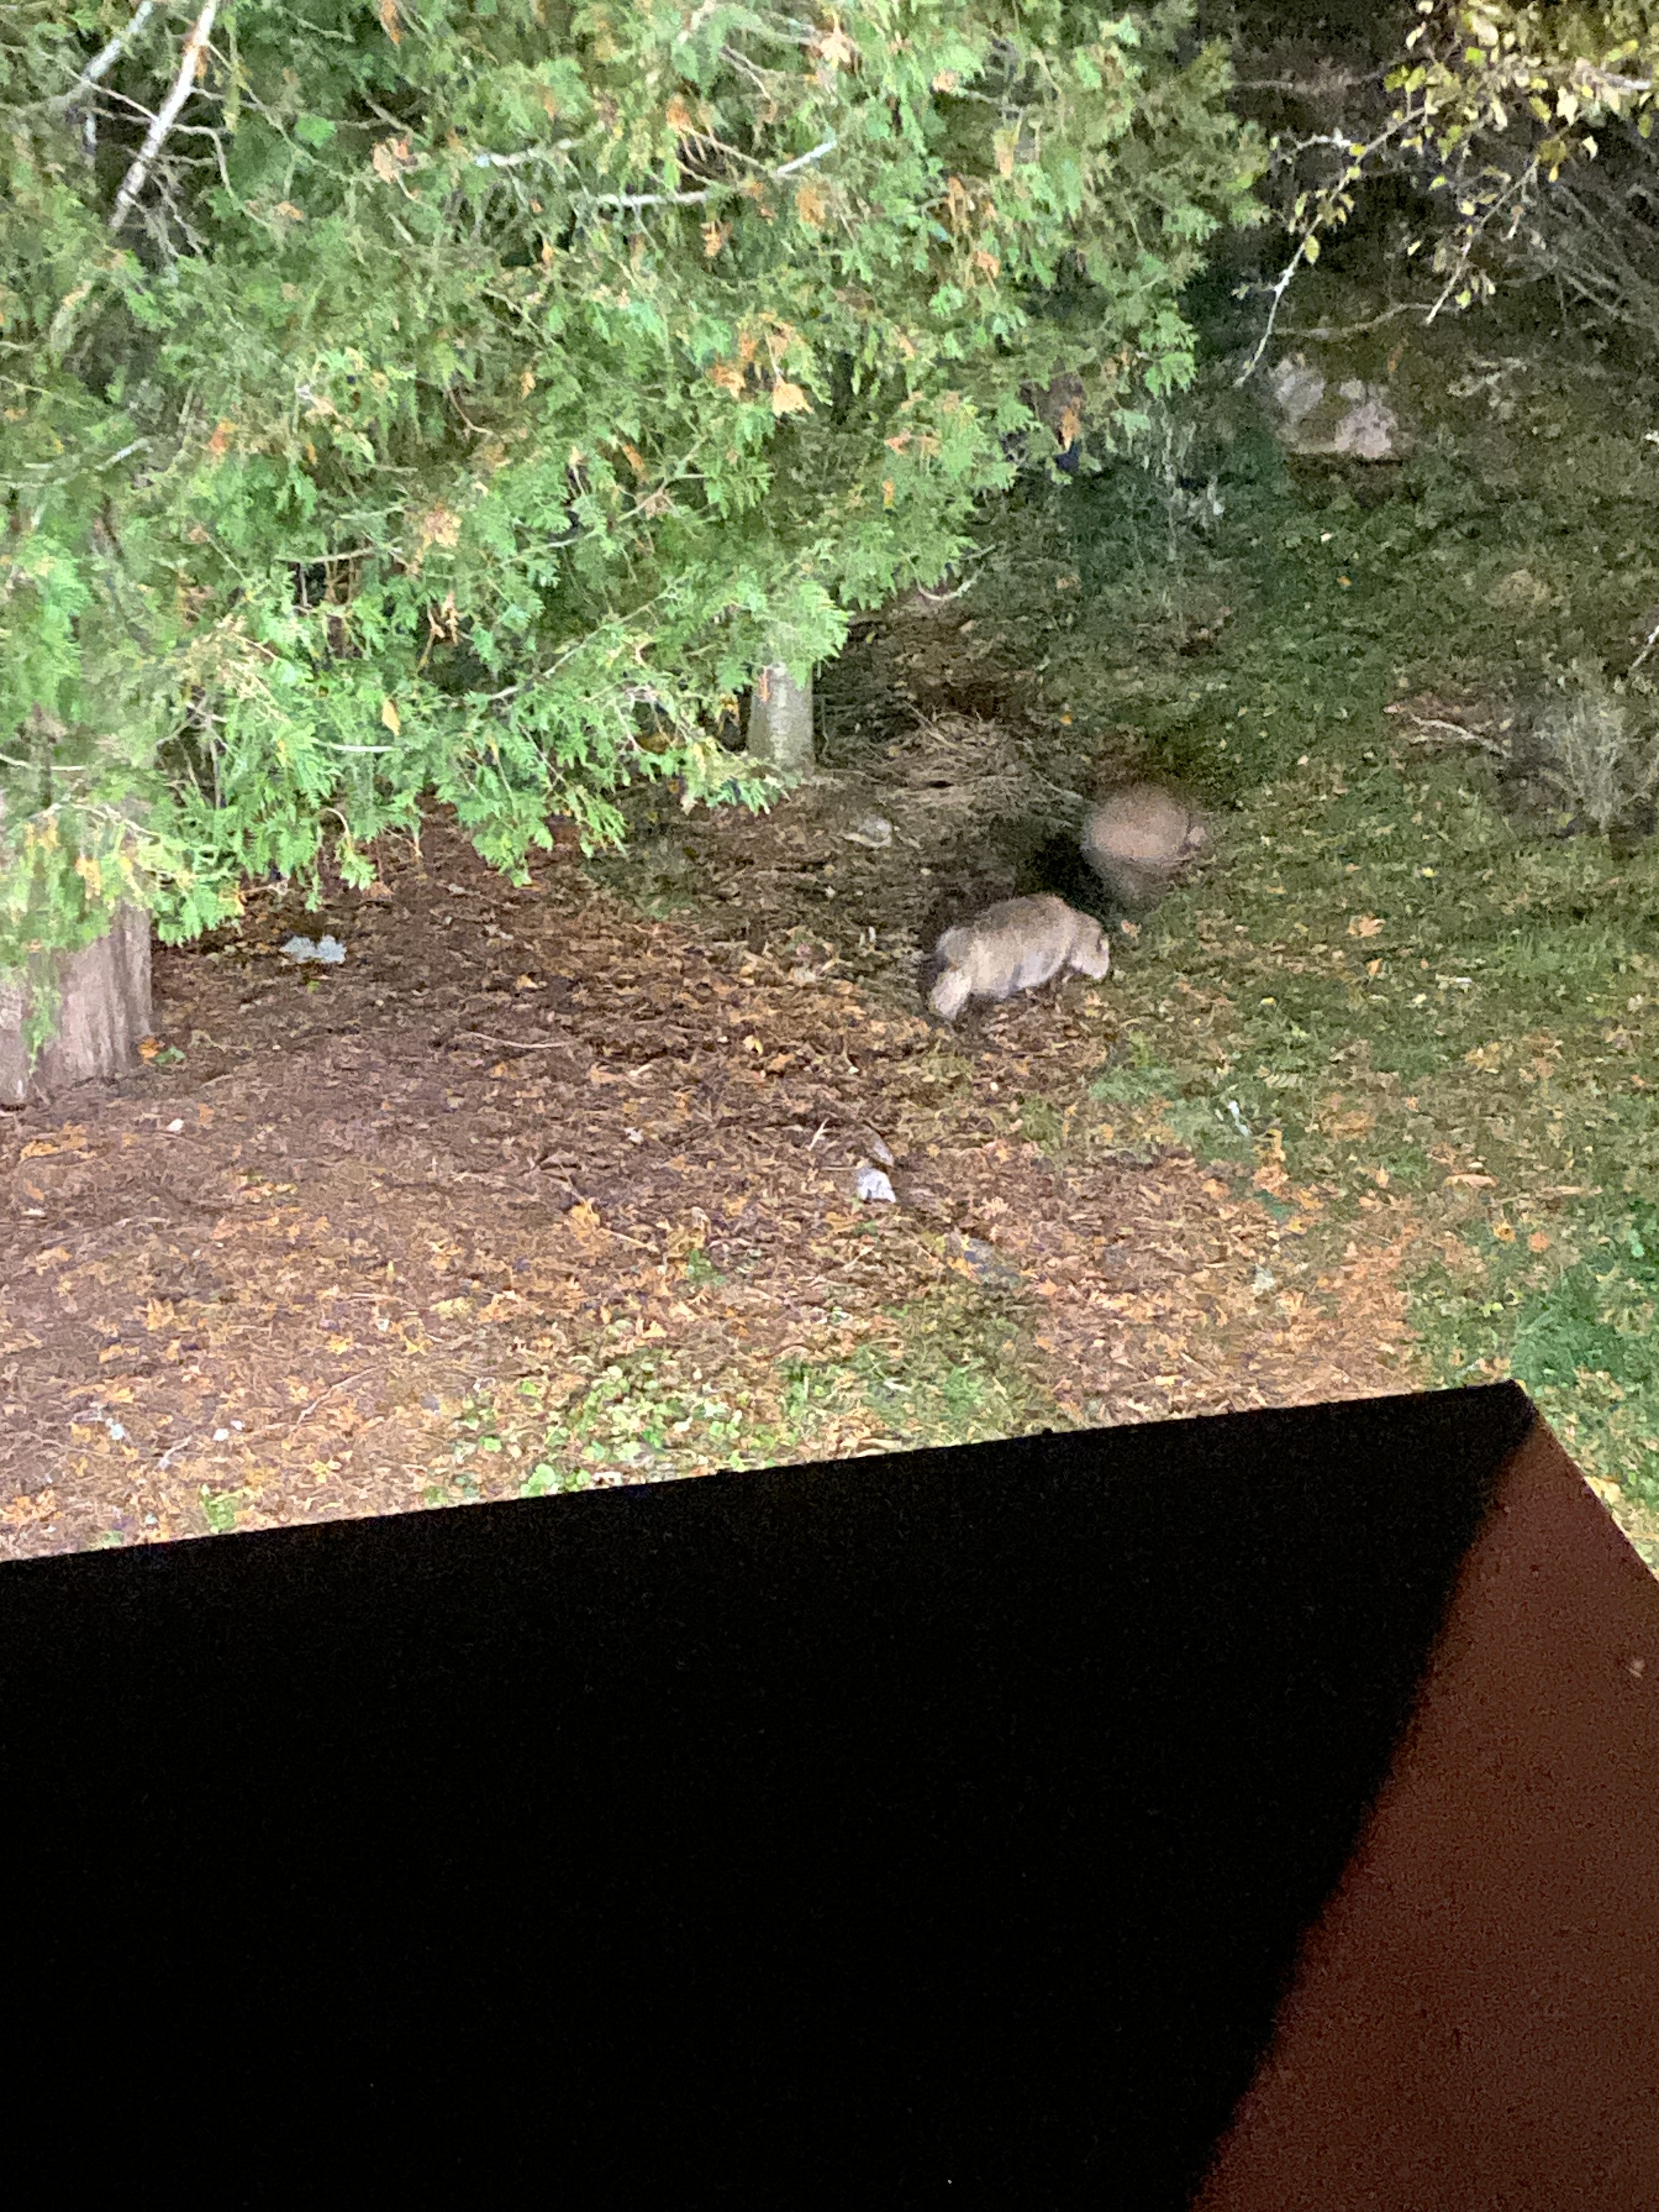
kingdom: Animalia
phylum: Chordata
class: Mammalia
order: Carnivora
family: Canidae
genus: Nyctereutes
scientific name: Nyctereutes procyonoides
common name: Raccoon dog
